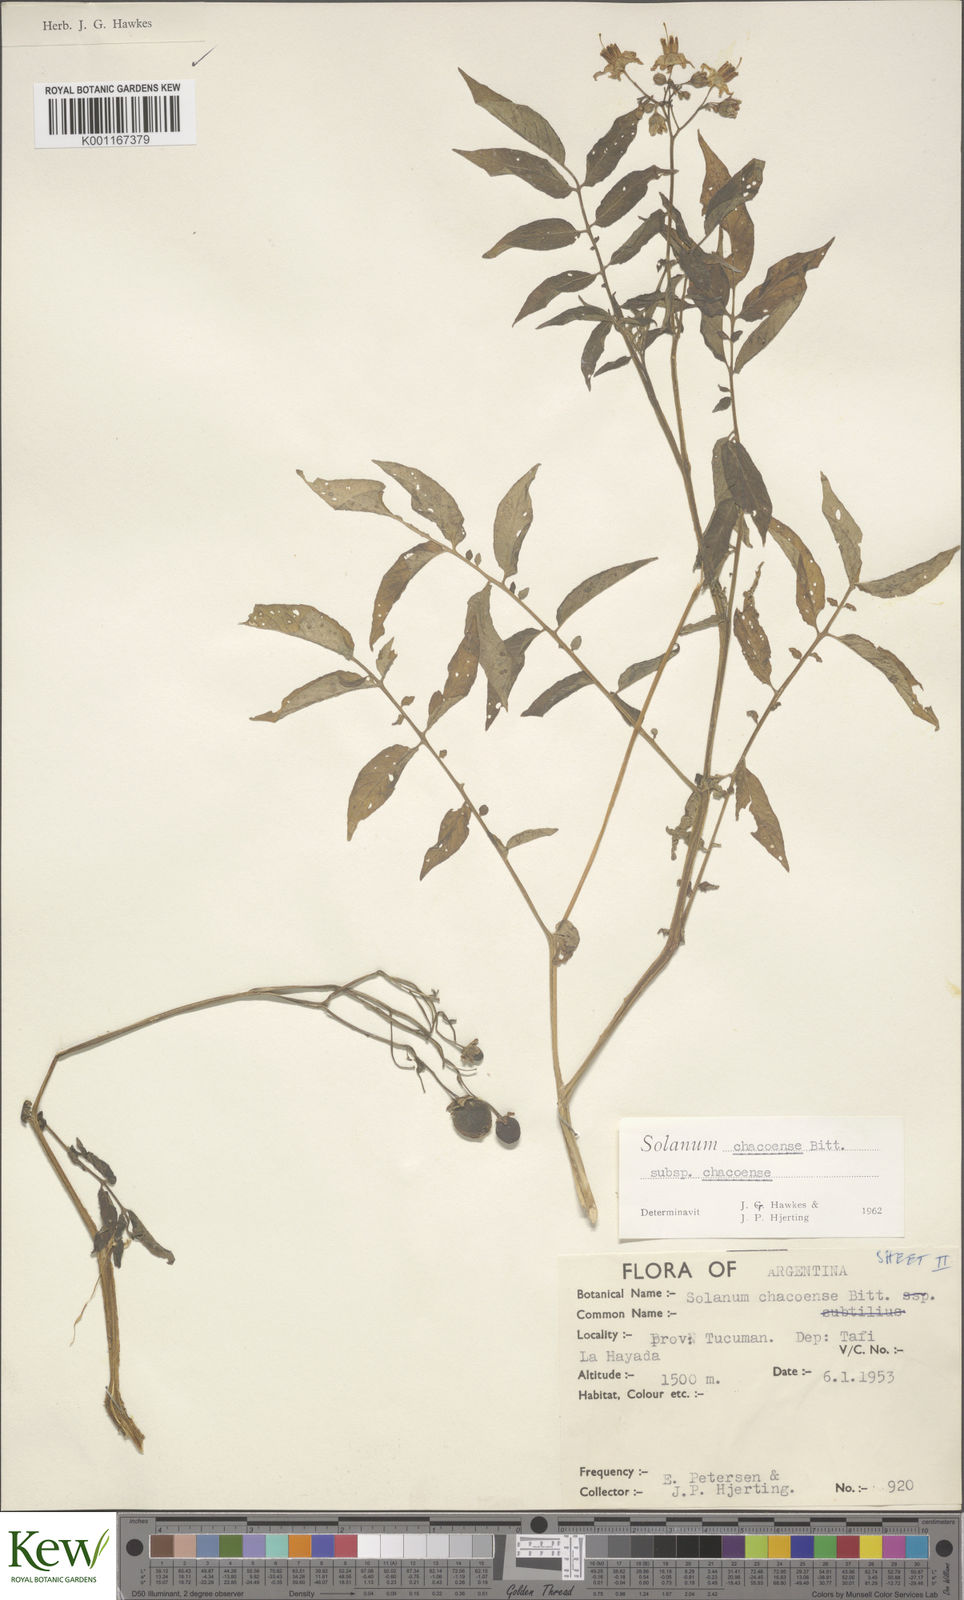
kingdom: Plantae
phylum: Tracheophyta
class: Magnoliopsida
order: Solanales
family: Solanaceae
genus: Solanum
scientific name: Solanum chacoense
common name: Chaco potato
